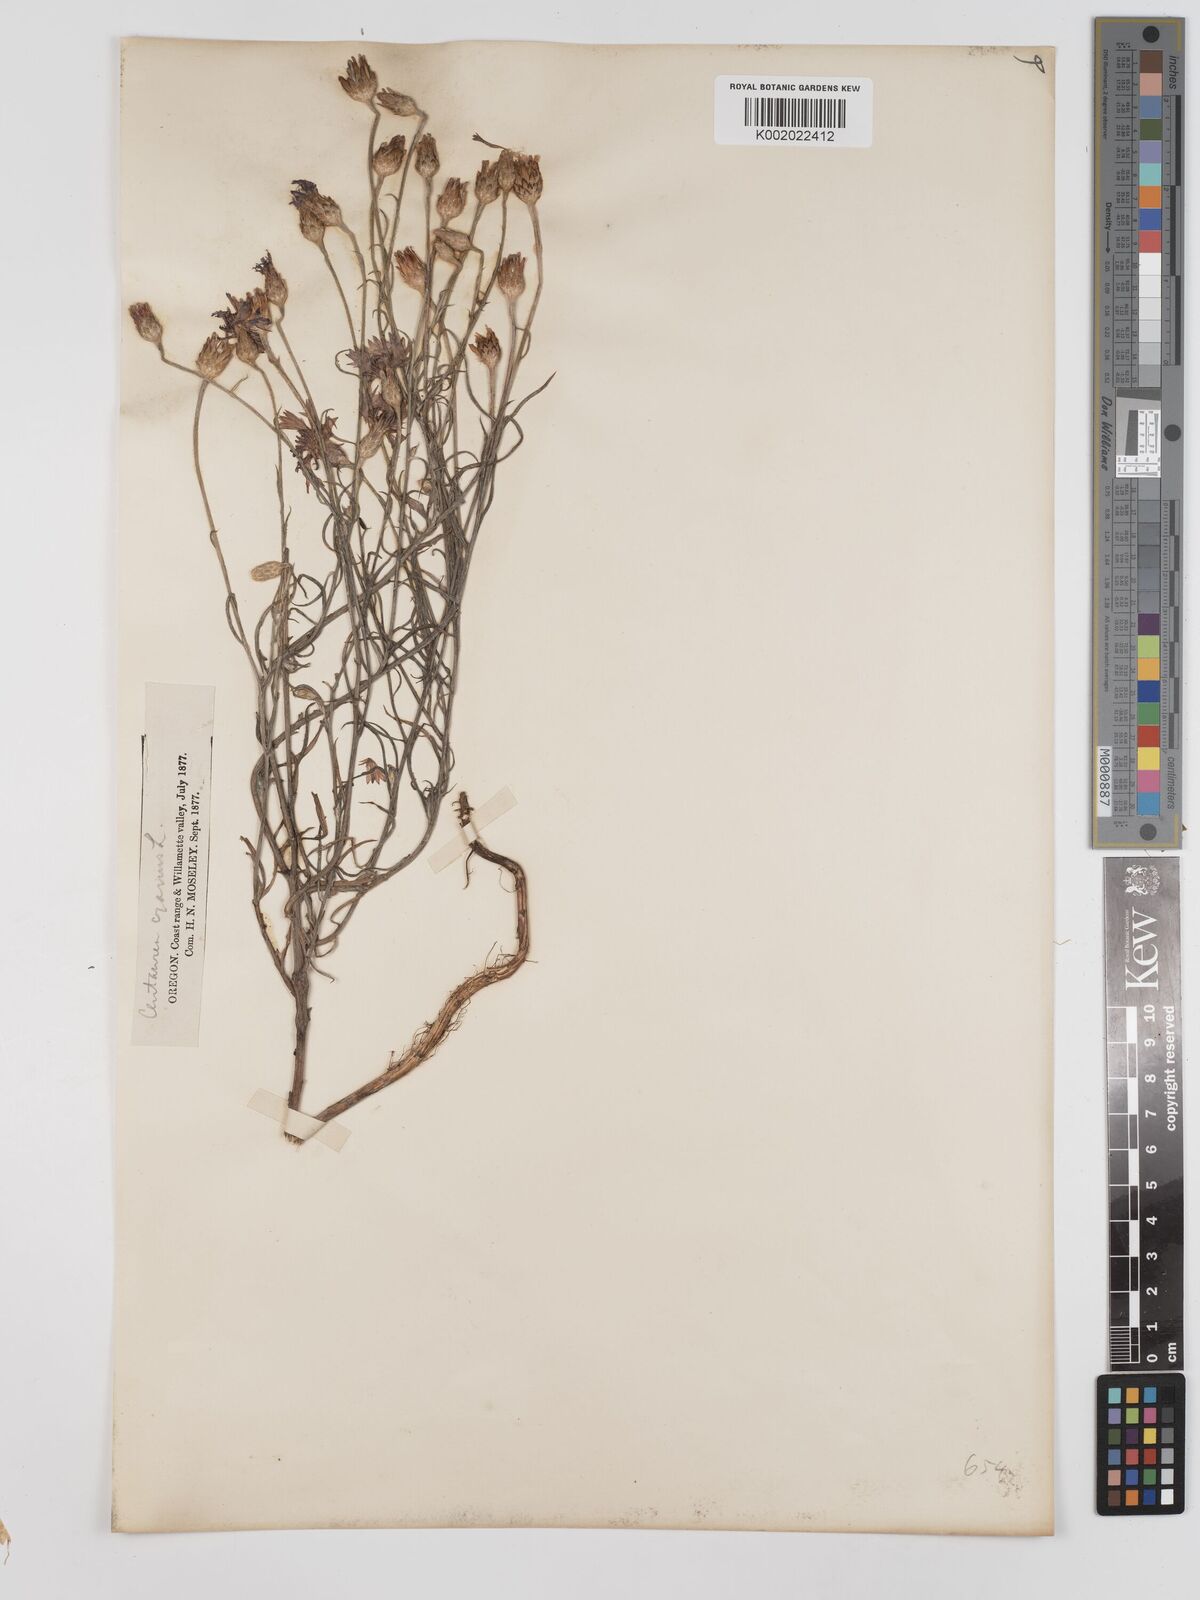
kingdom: Plantae
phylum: Tracheophyta
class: Magnoliopsida
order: Asterales
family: Asteraceae
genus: Centaurea
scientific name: Centaurea cyanus
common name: Cornflower
